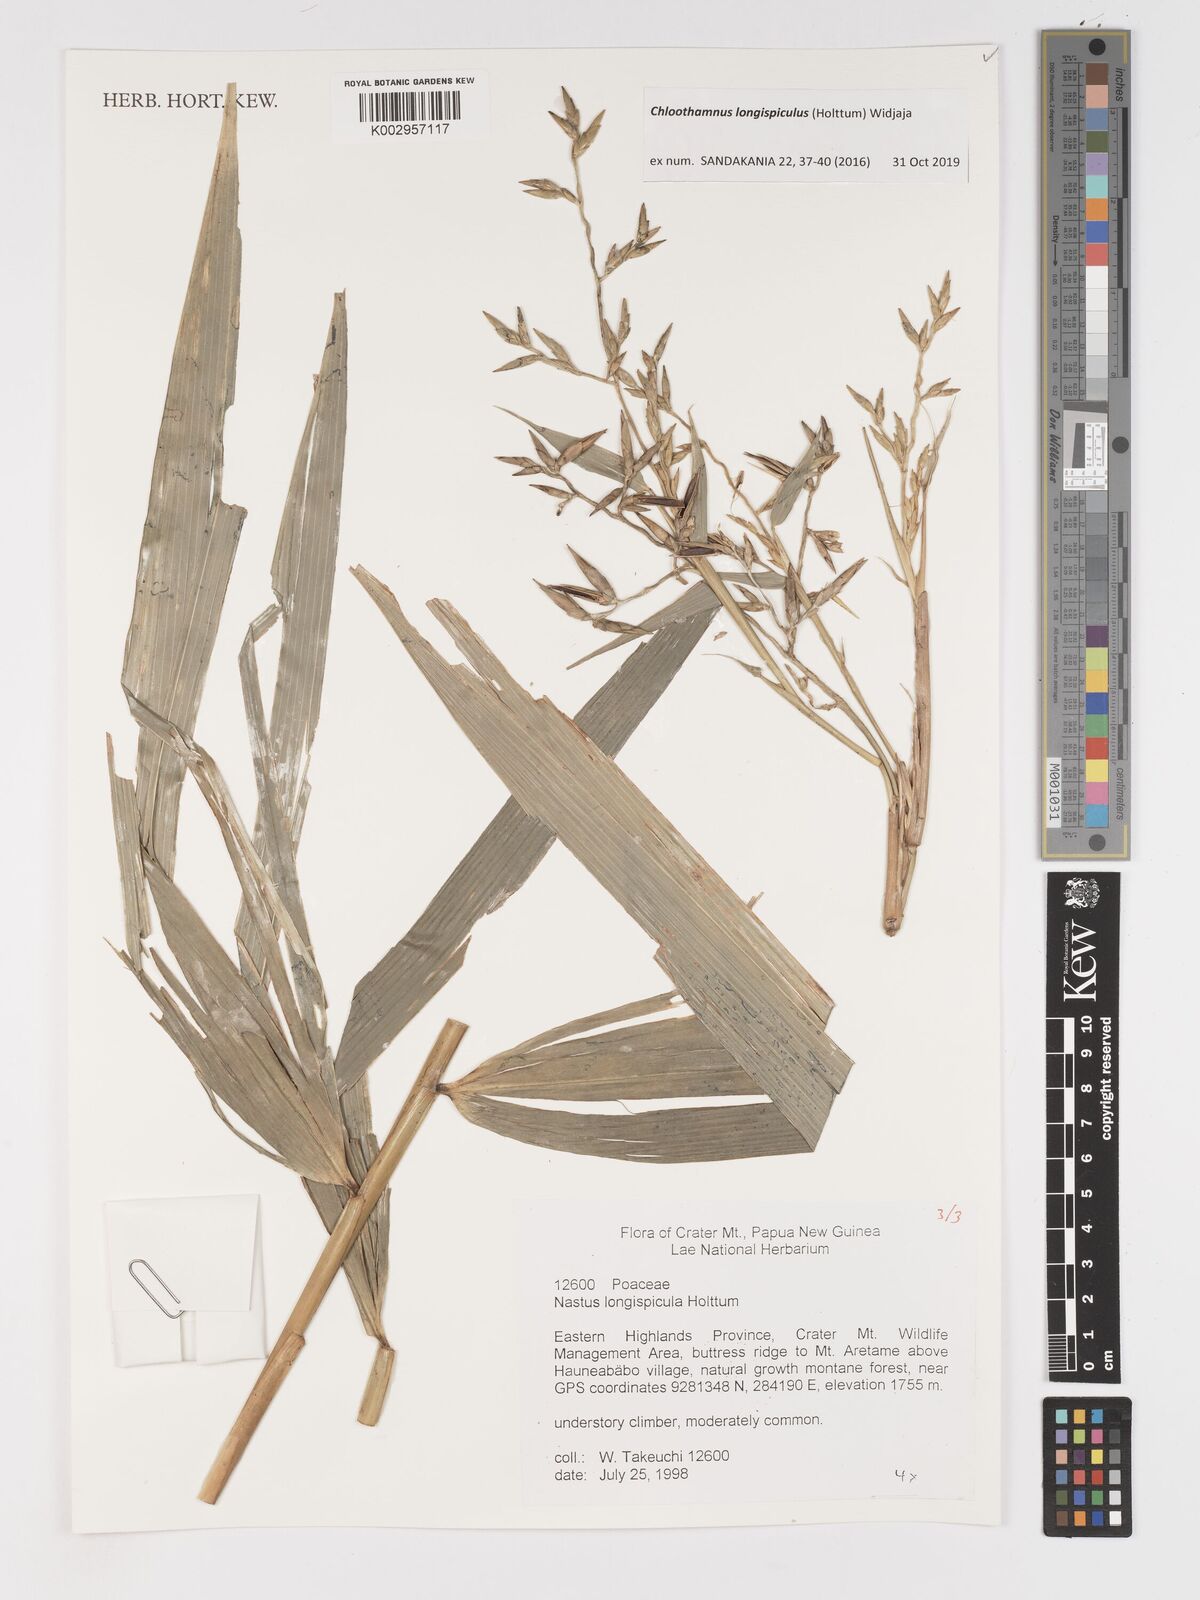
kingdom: Plantae
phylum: Tracheophyta
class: Liliopsida
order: Poales
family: Poaceae
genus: Chloothamnus
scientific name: Chloothamnus longispiculus
